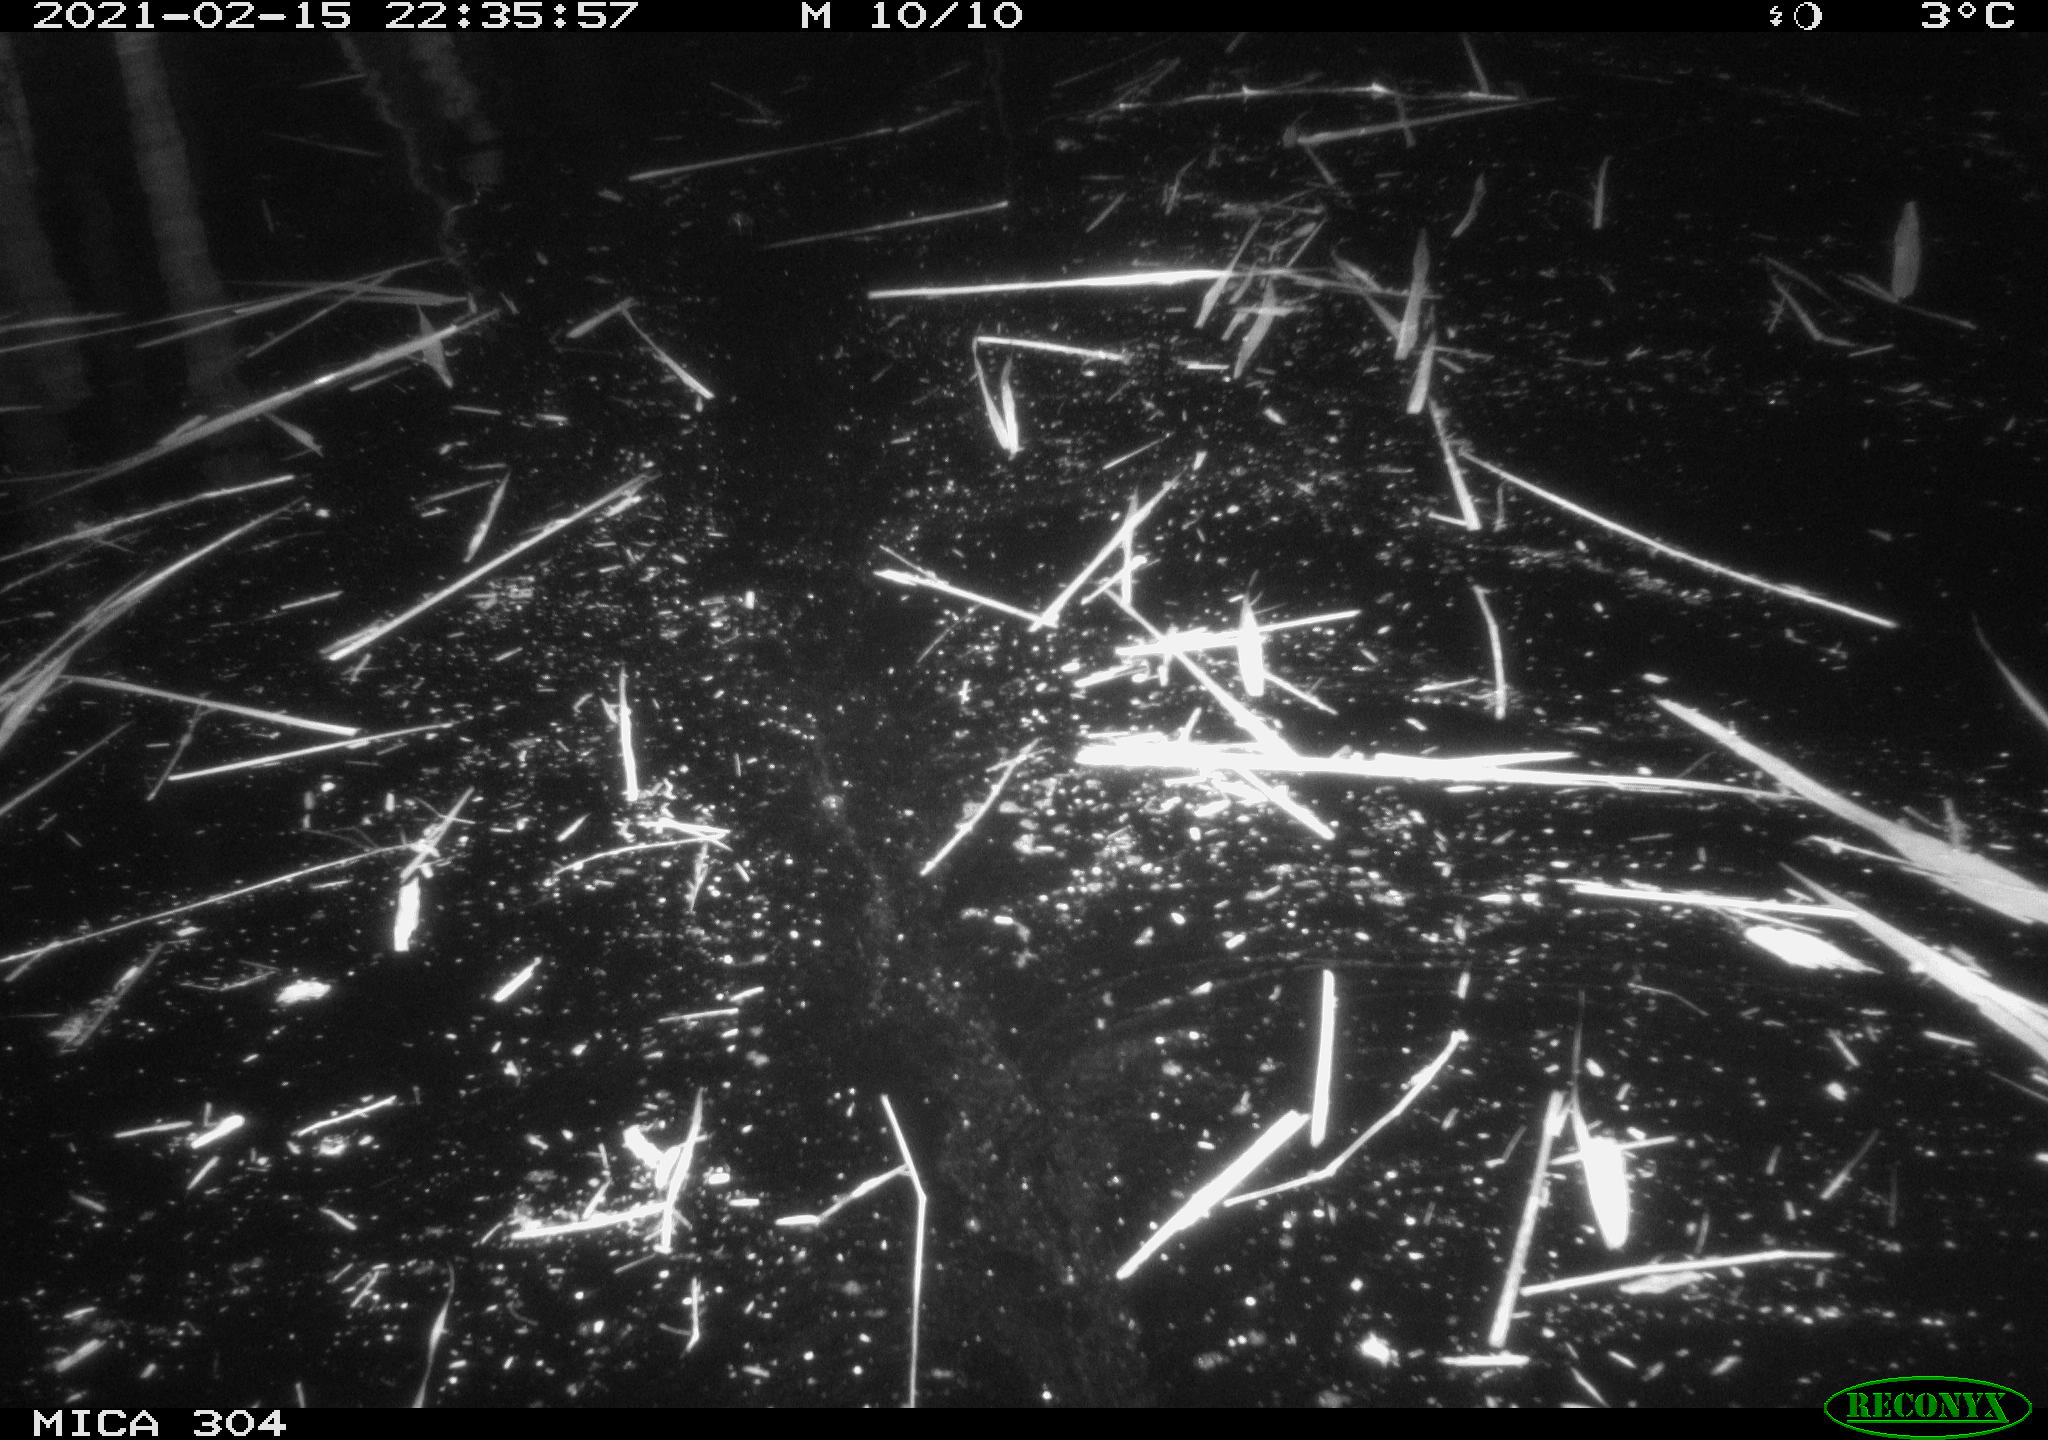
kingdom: Animalia
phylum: Chordata
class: Mammalia
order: Rodentia
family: Cricetidae
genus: Ondatra
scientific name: Ondatra zibethicus
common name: Muskrat
